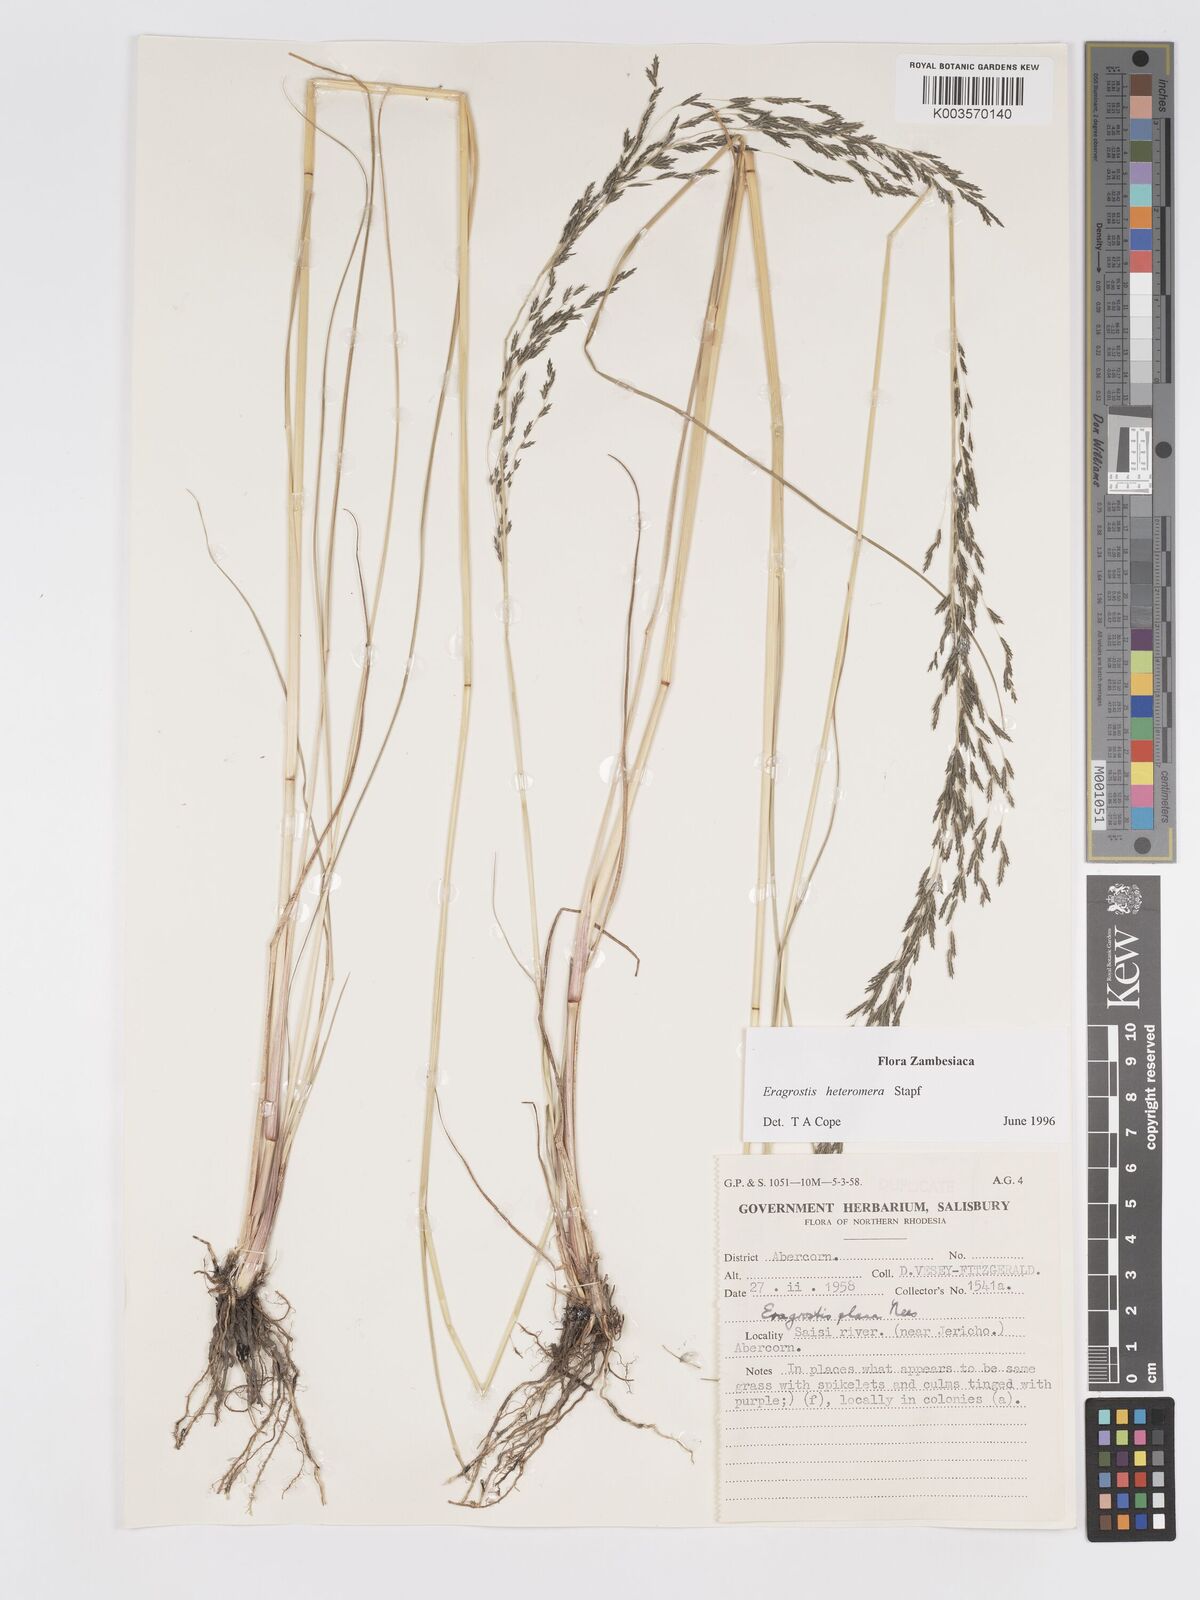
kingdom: Plantae
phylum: Tracheophyta
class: Liliopsida
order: Poales
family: Poaceae
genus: Eragrostis
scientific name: Eragrostis heteromera
